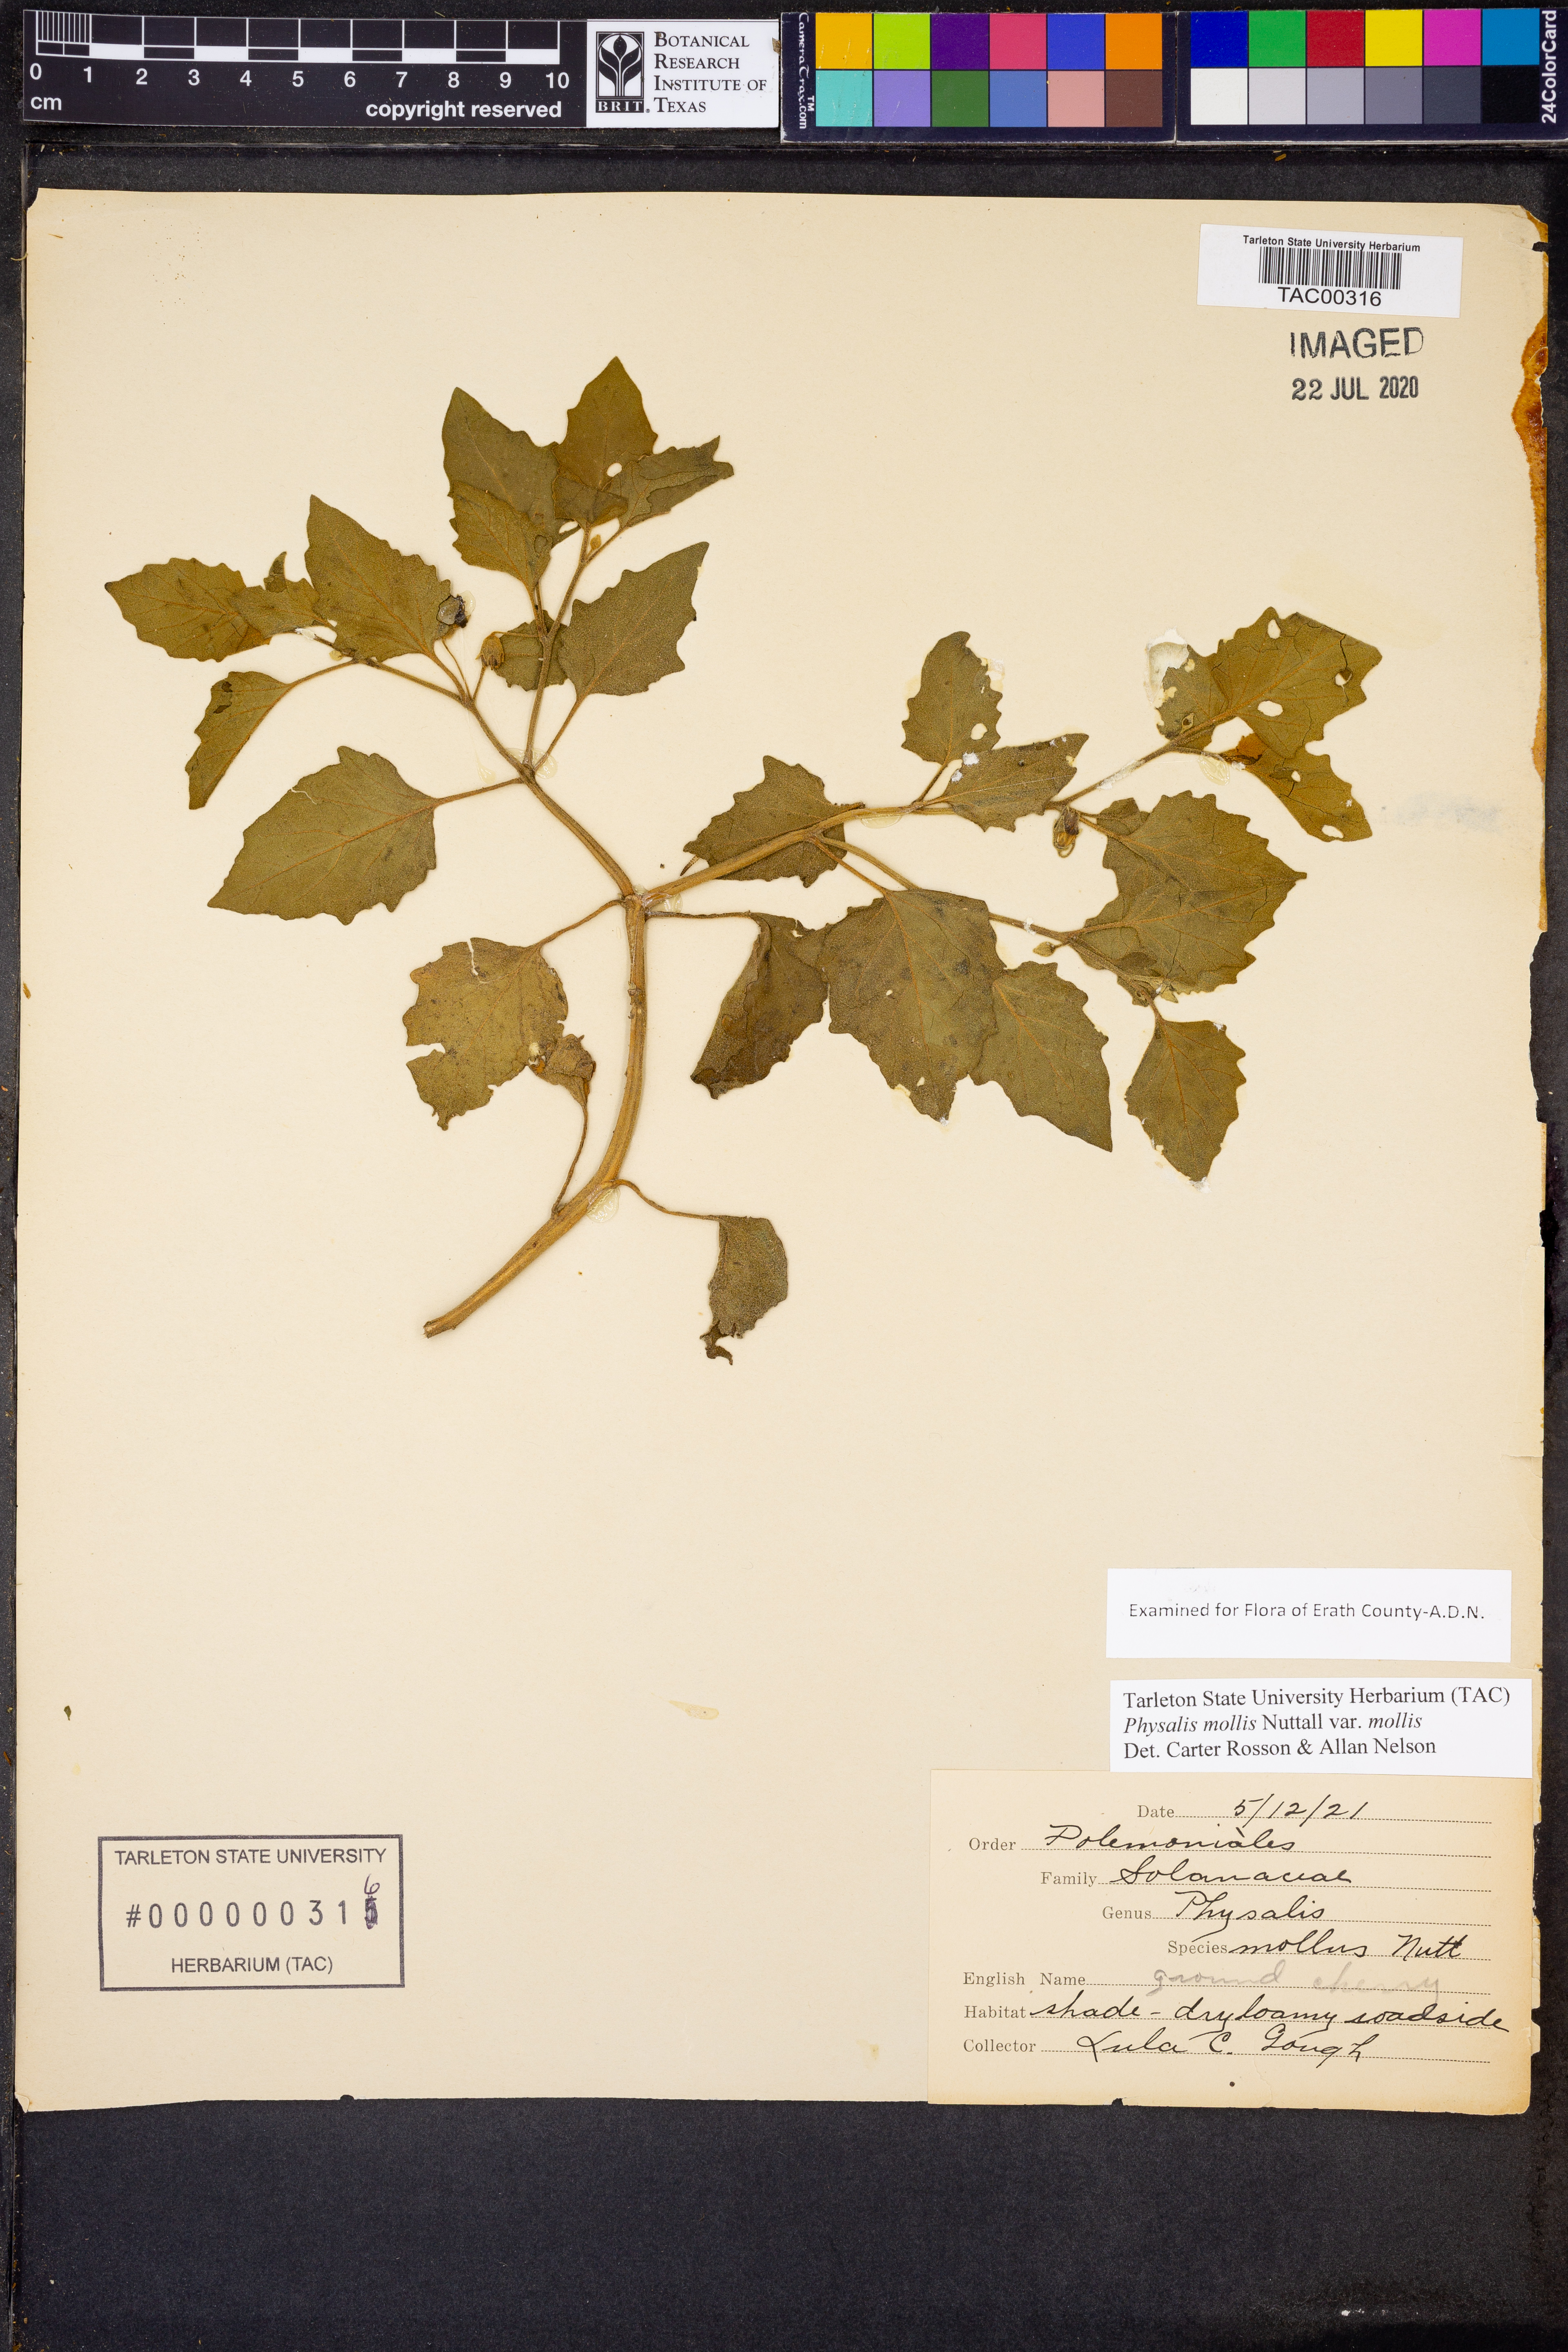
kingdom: Plantae
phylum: Tracheophyta
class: Magnoliopsida
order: Solanales
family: Solanaceae
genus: Physalis
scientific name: Physalis mollis
